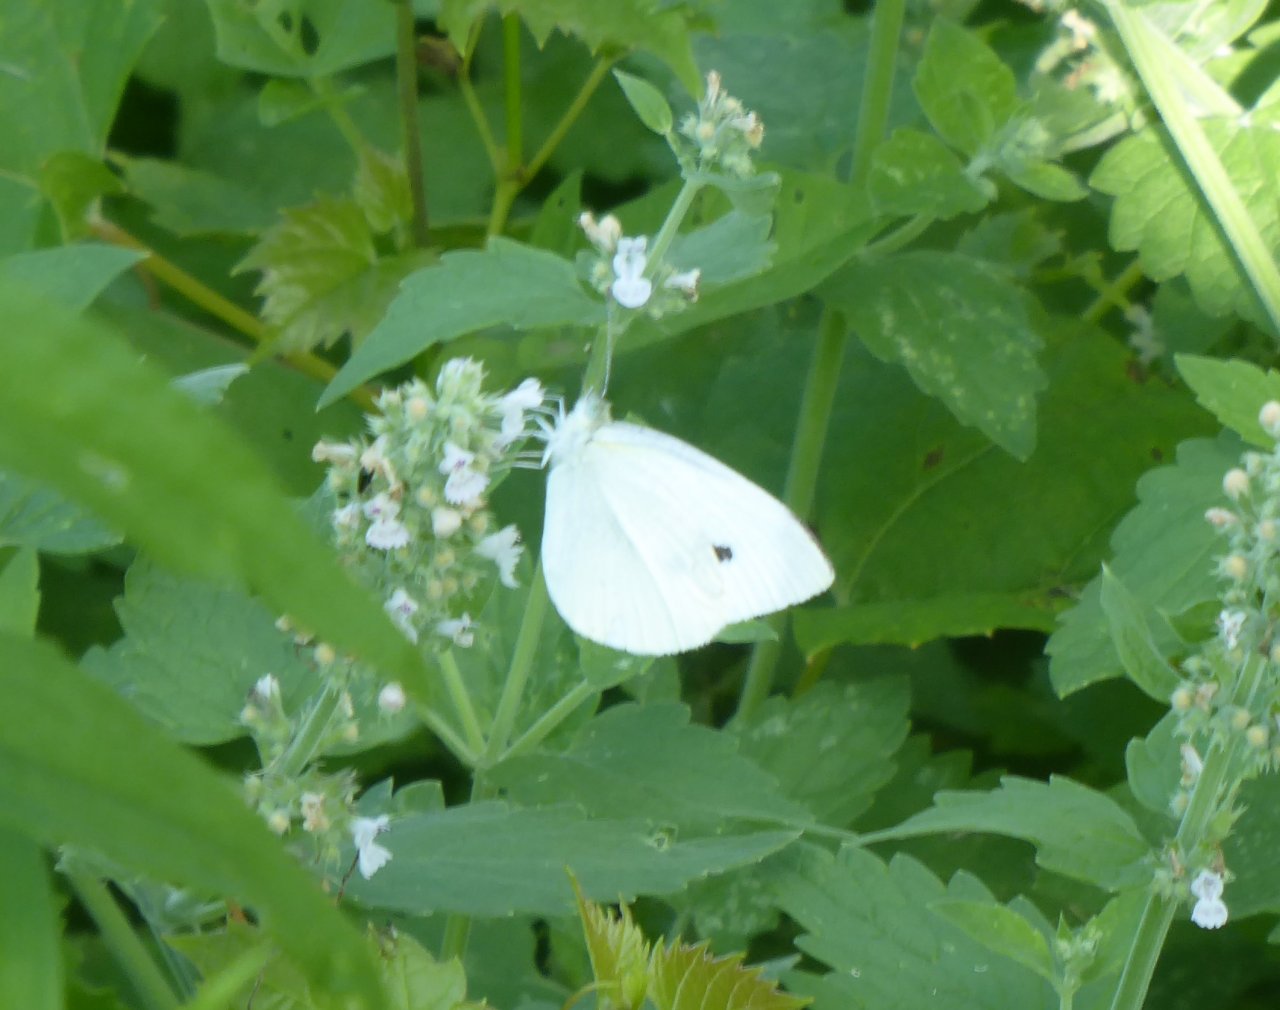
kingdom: Animalia
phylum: Arthropoda
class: Insecta
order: Lepidoptera
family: Pieridae
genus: Pieris
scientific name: Pieris rapae
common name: Cabbage White
